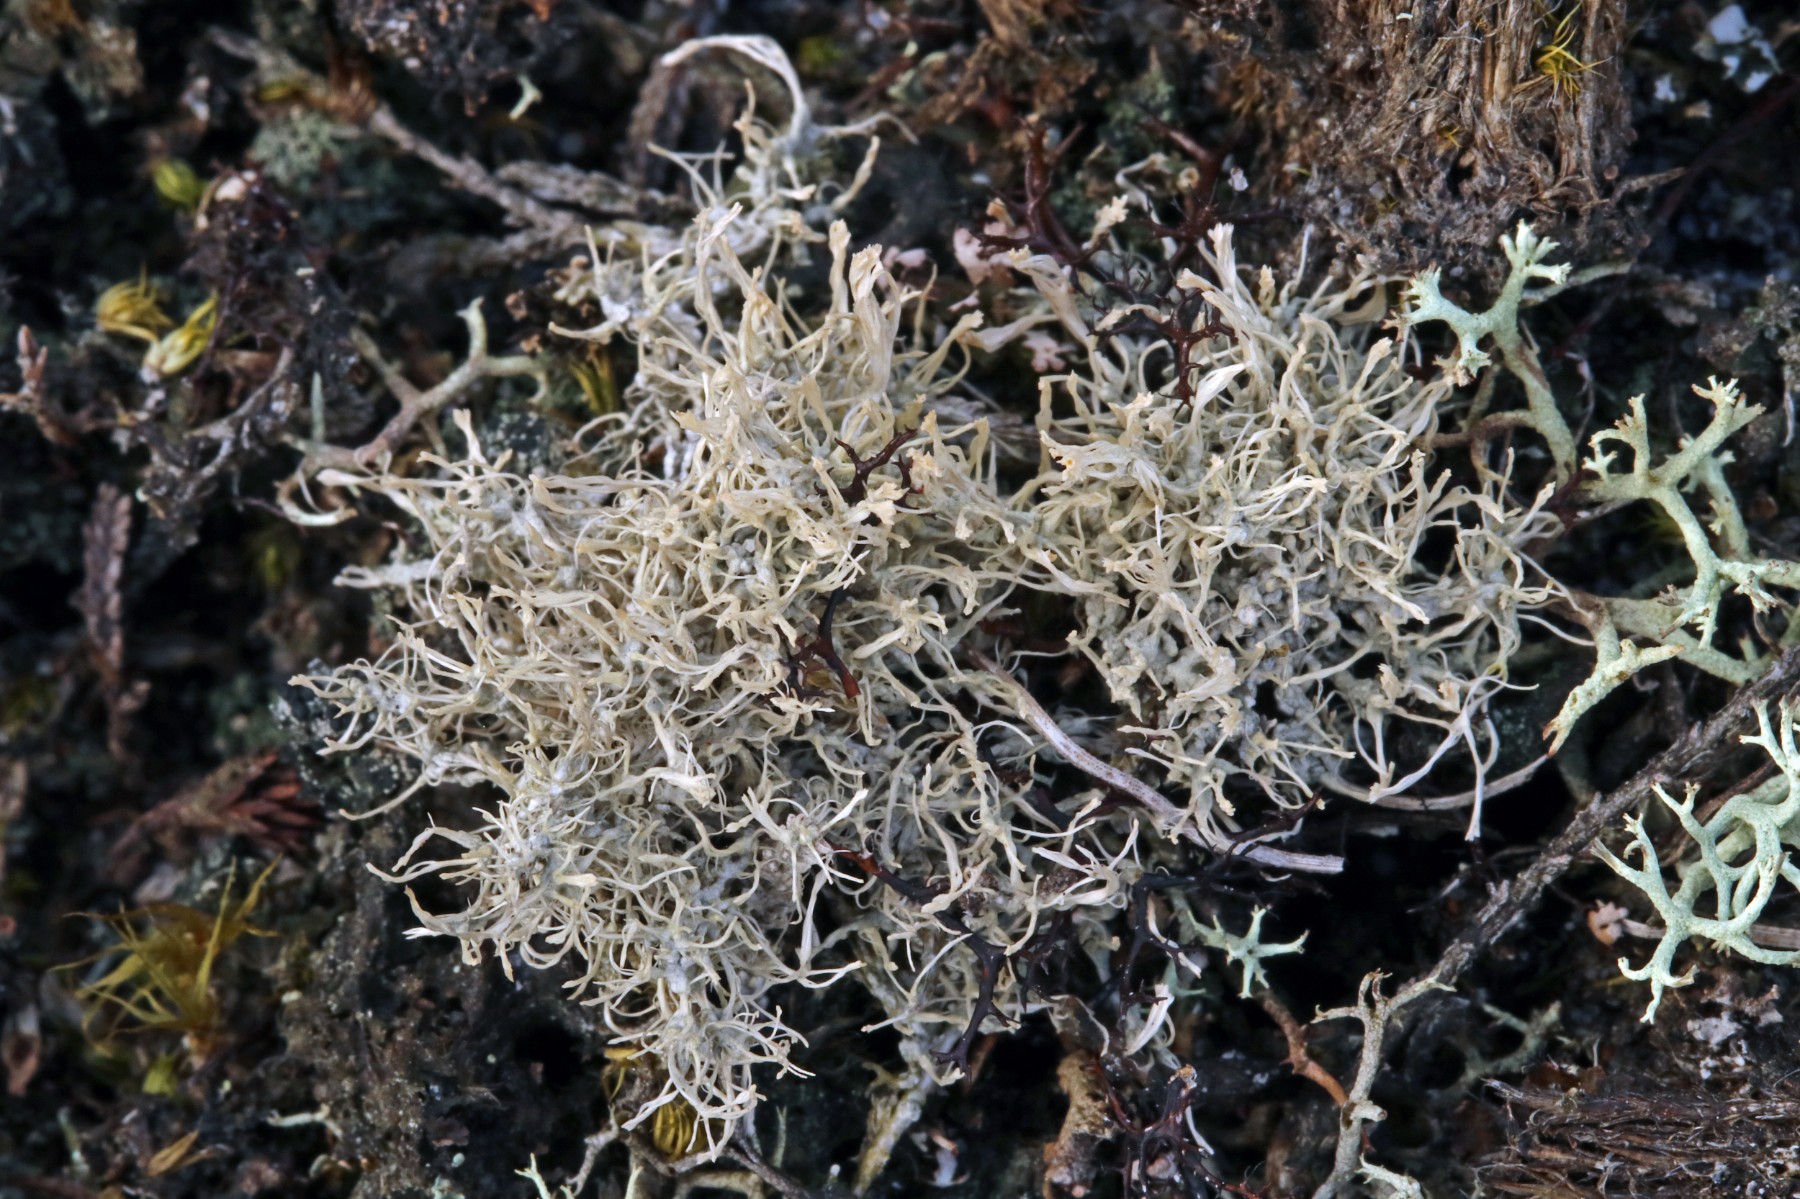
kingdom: Fungi
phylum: Ascomycota
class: Lecanoromycetes
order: Pertusariales
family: Ochrolechiaceae
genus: Ochrolechia
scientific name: Ochrolechia frigida
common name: fjeld-blegskivelav
